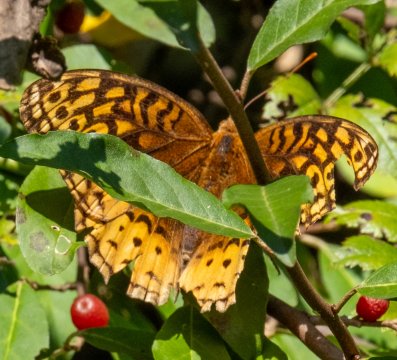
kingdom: Animalia
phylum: Arthropoda
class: Insecta
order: Lepidoptera
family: Nymphalidae
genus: Speyeria
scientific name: Speyeria cybele
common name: Great Spangled Fritillary
